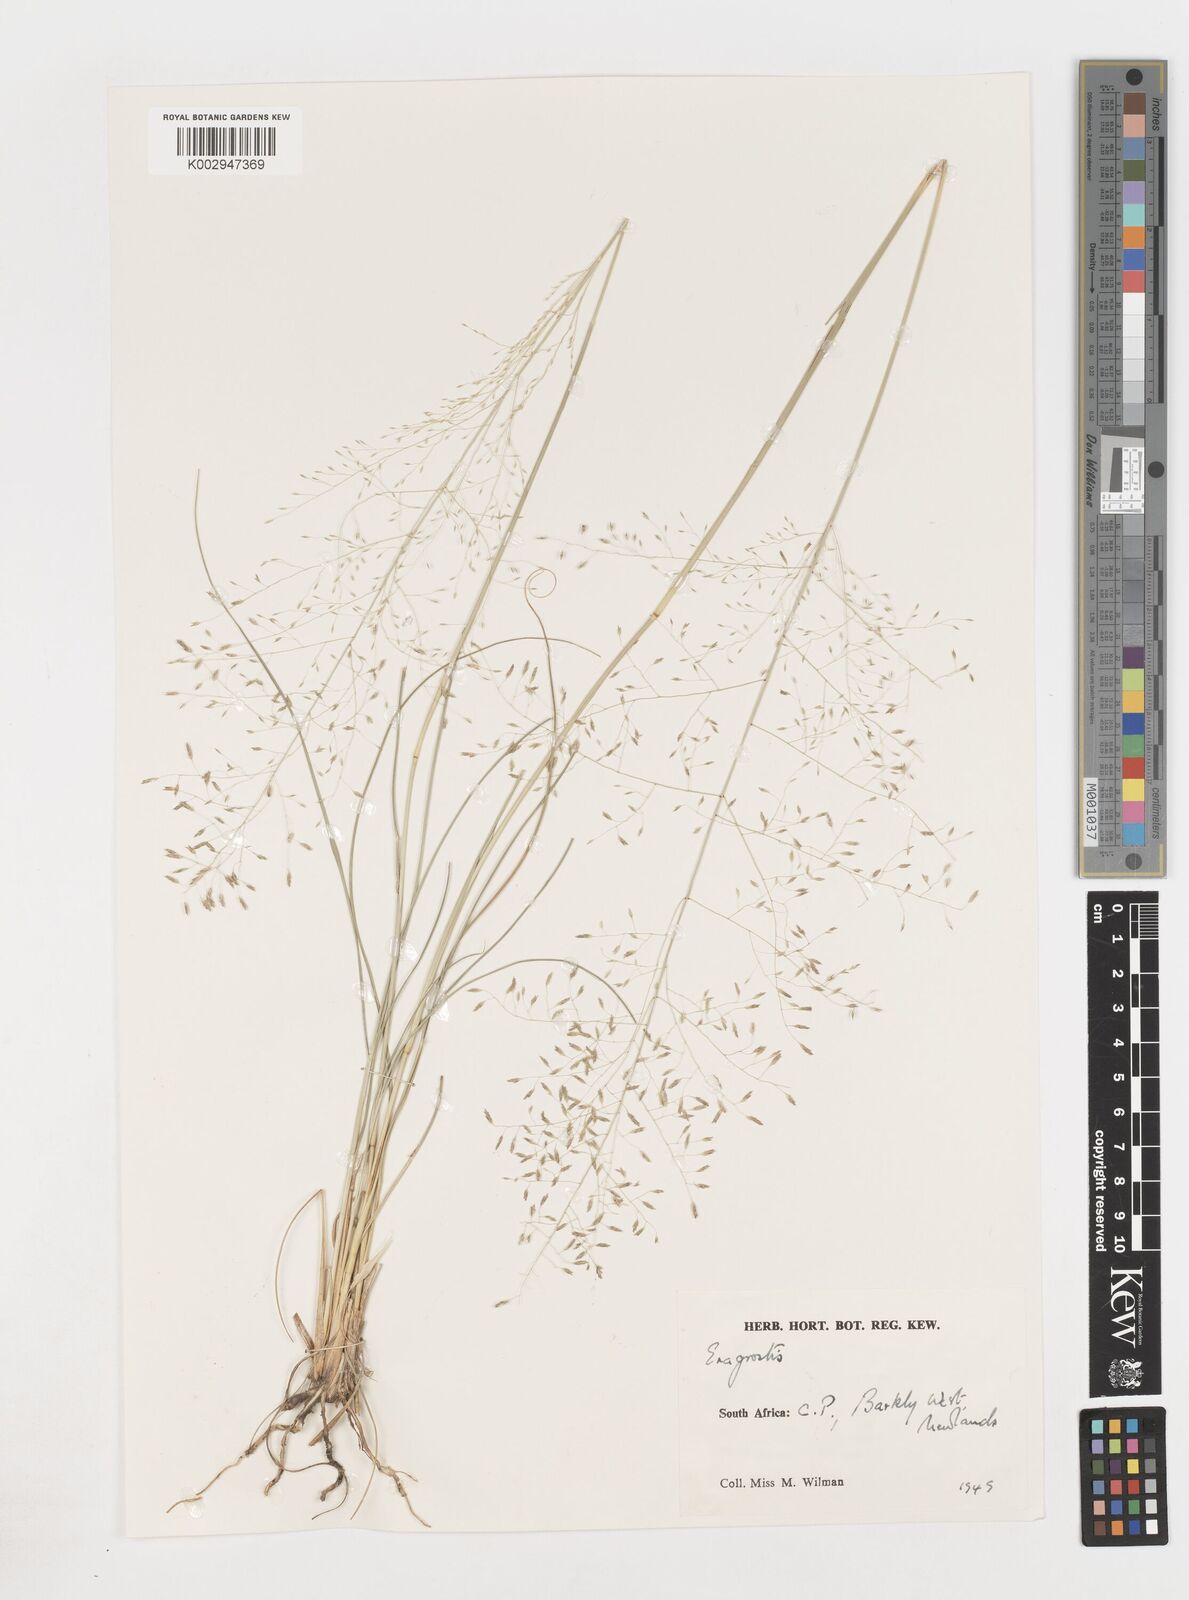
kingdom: Plantae
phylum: Tracheophyta
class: Liliopsida
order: Poales
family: Poaceae
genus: Eragrostis
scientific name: Eragrostis
